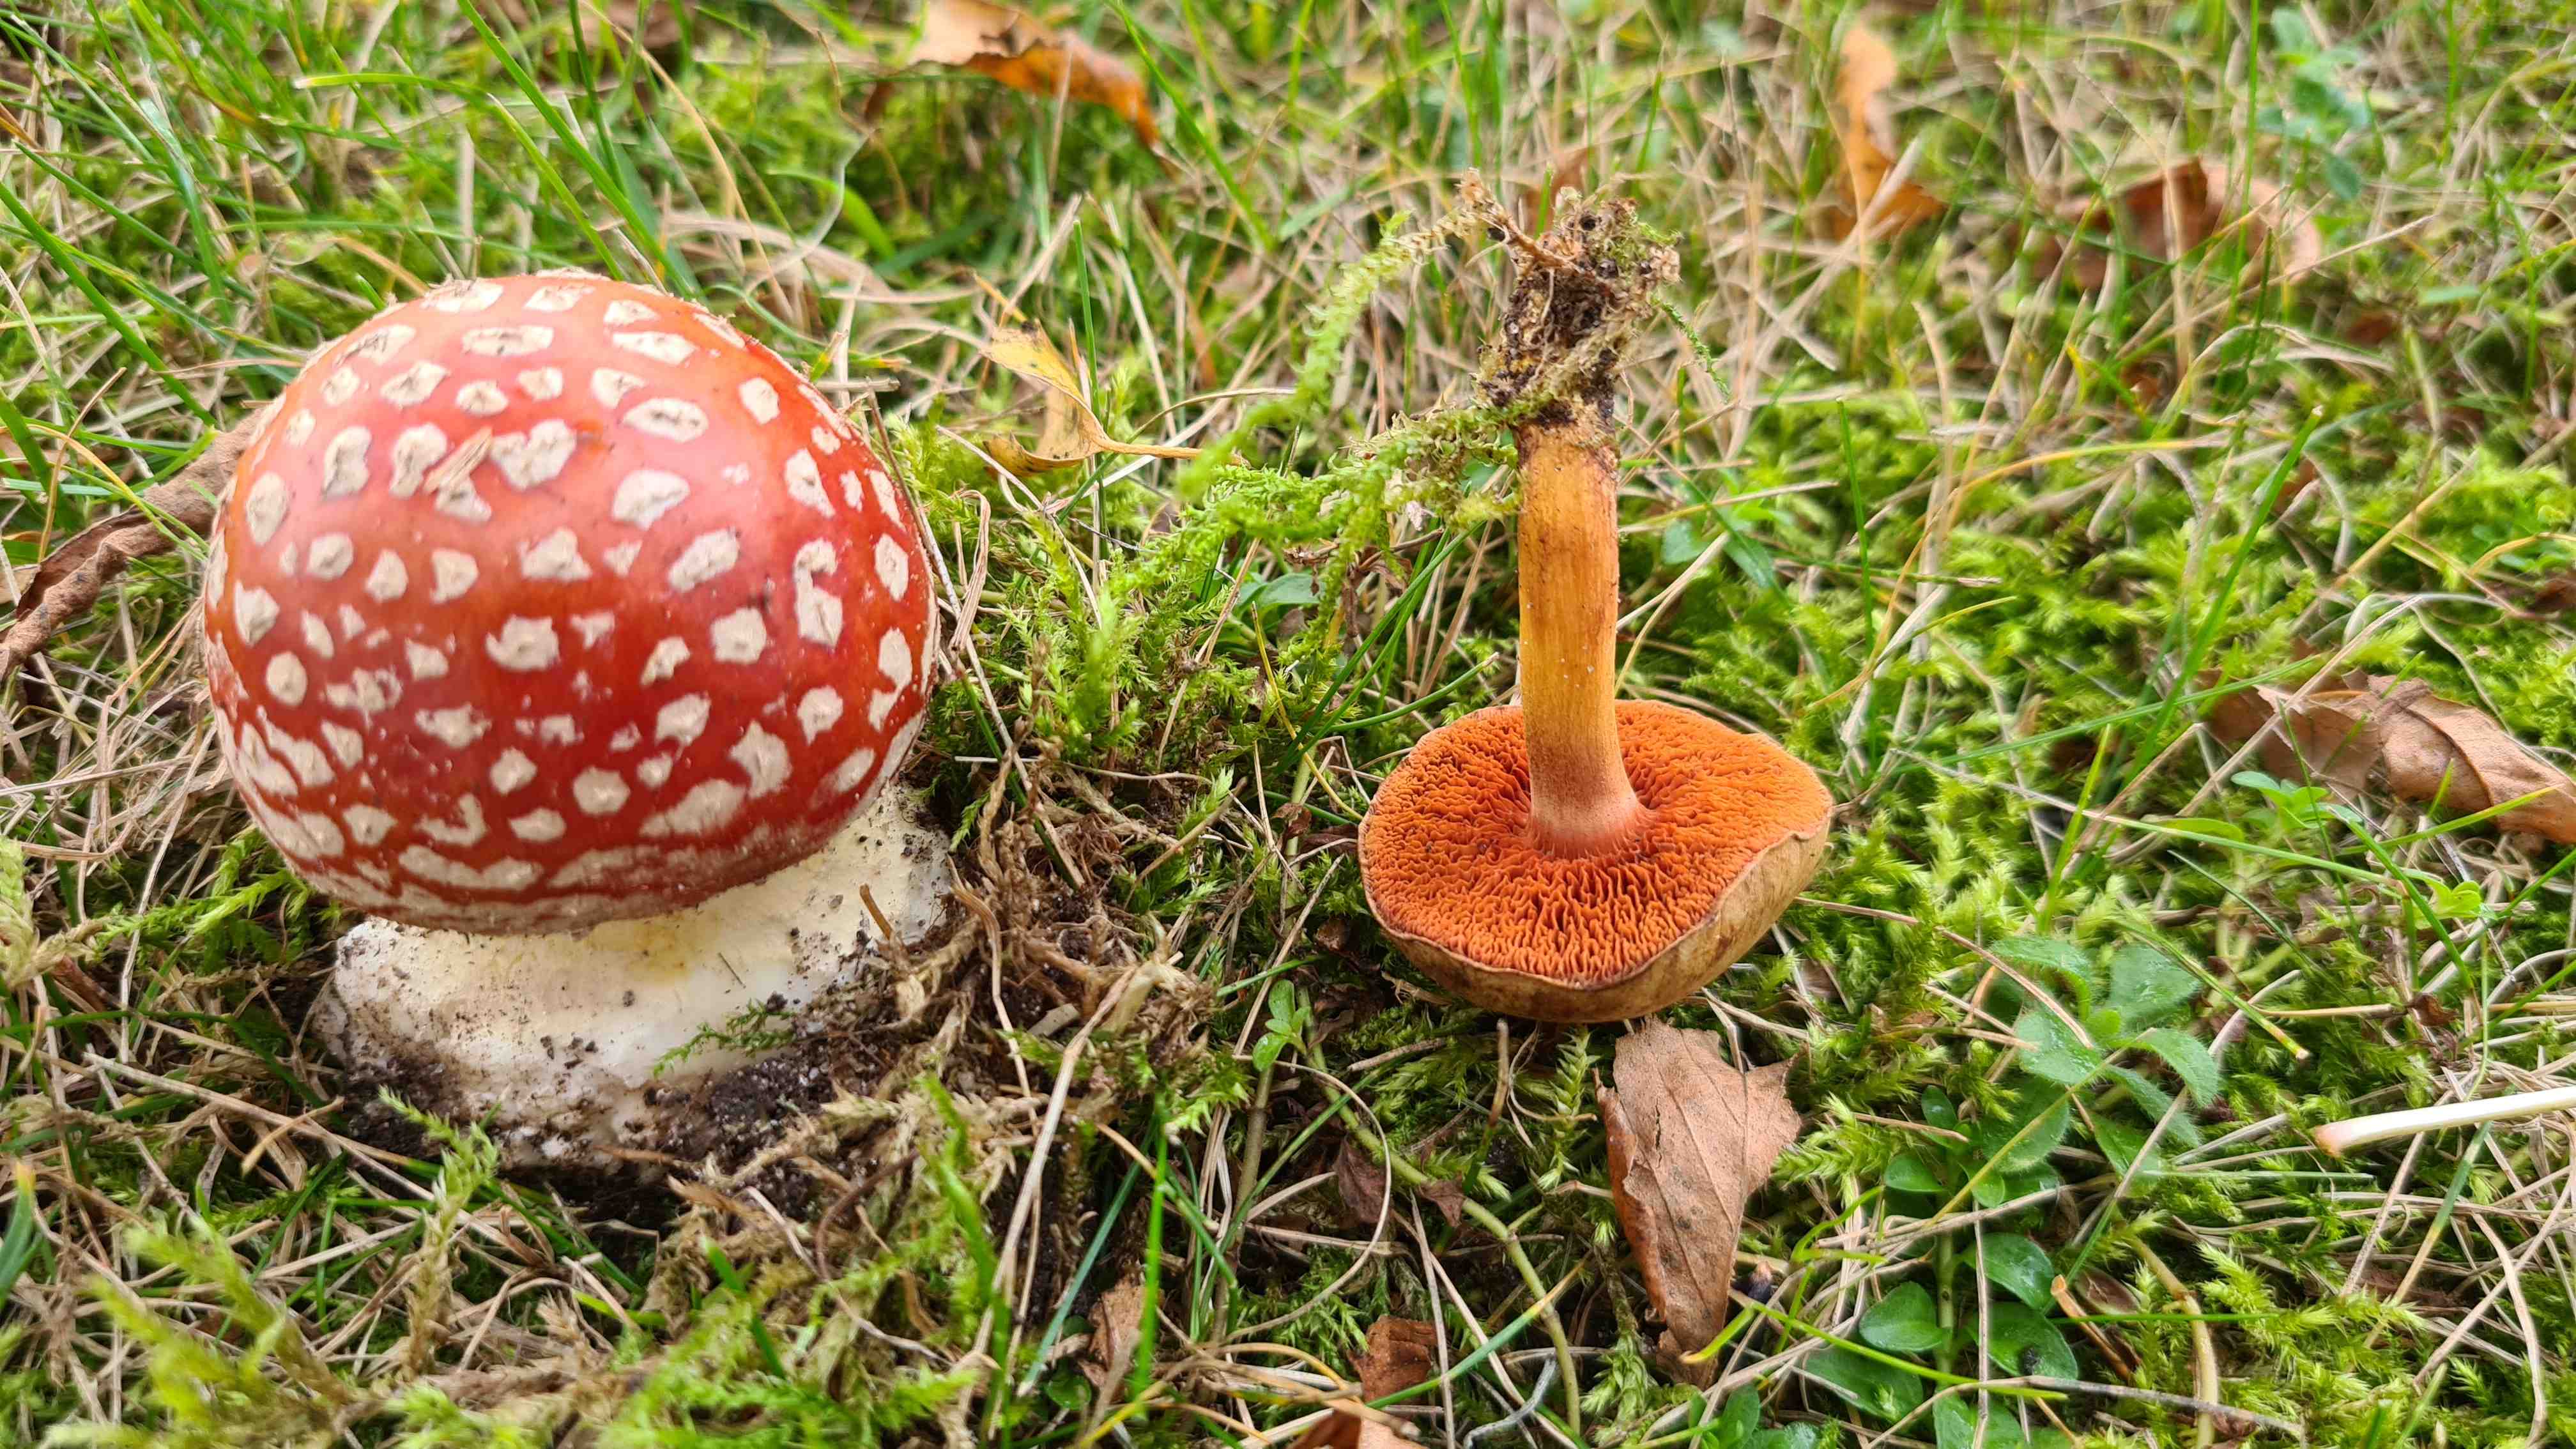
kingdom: Fungi
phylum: Basidiomycota
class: Agaricomycetes
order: Agaricales
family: Amanitaceae
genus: Amanita
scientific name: Amanita muscaria
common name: rød fluesvamp
